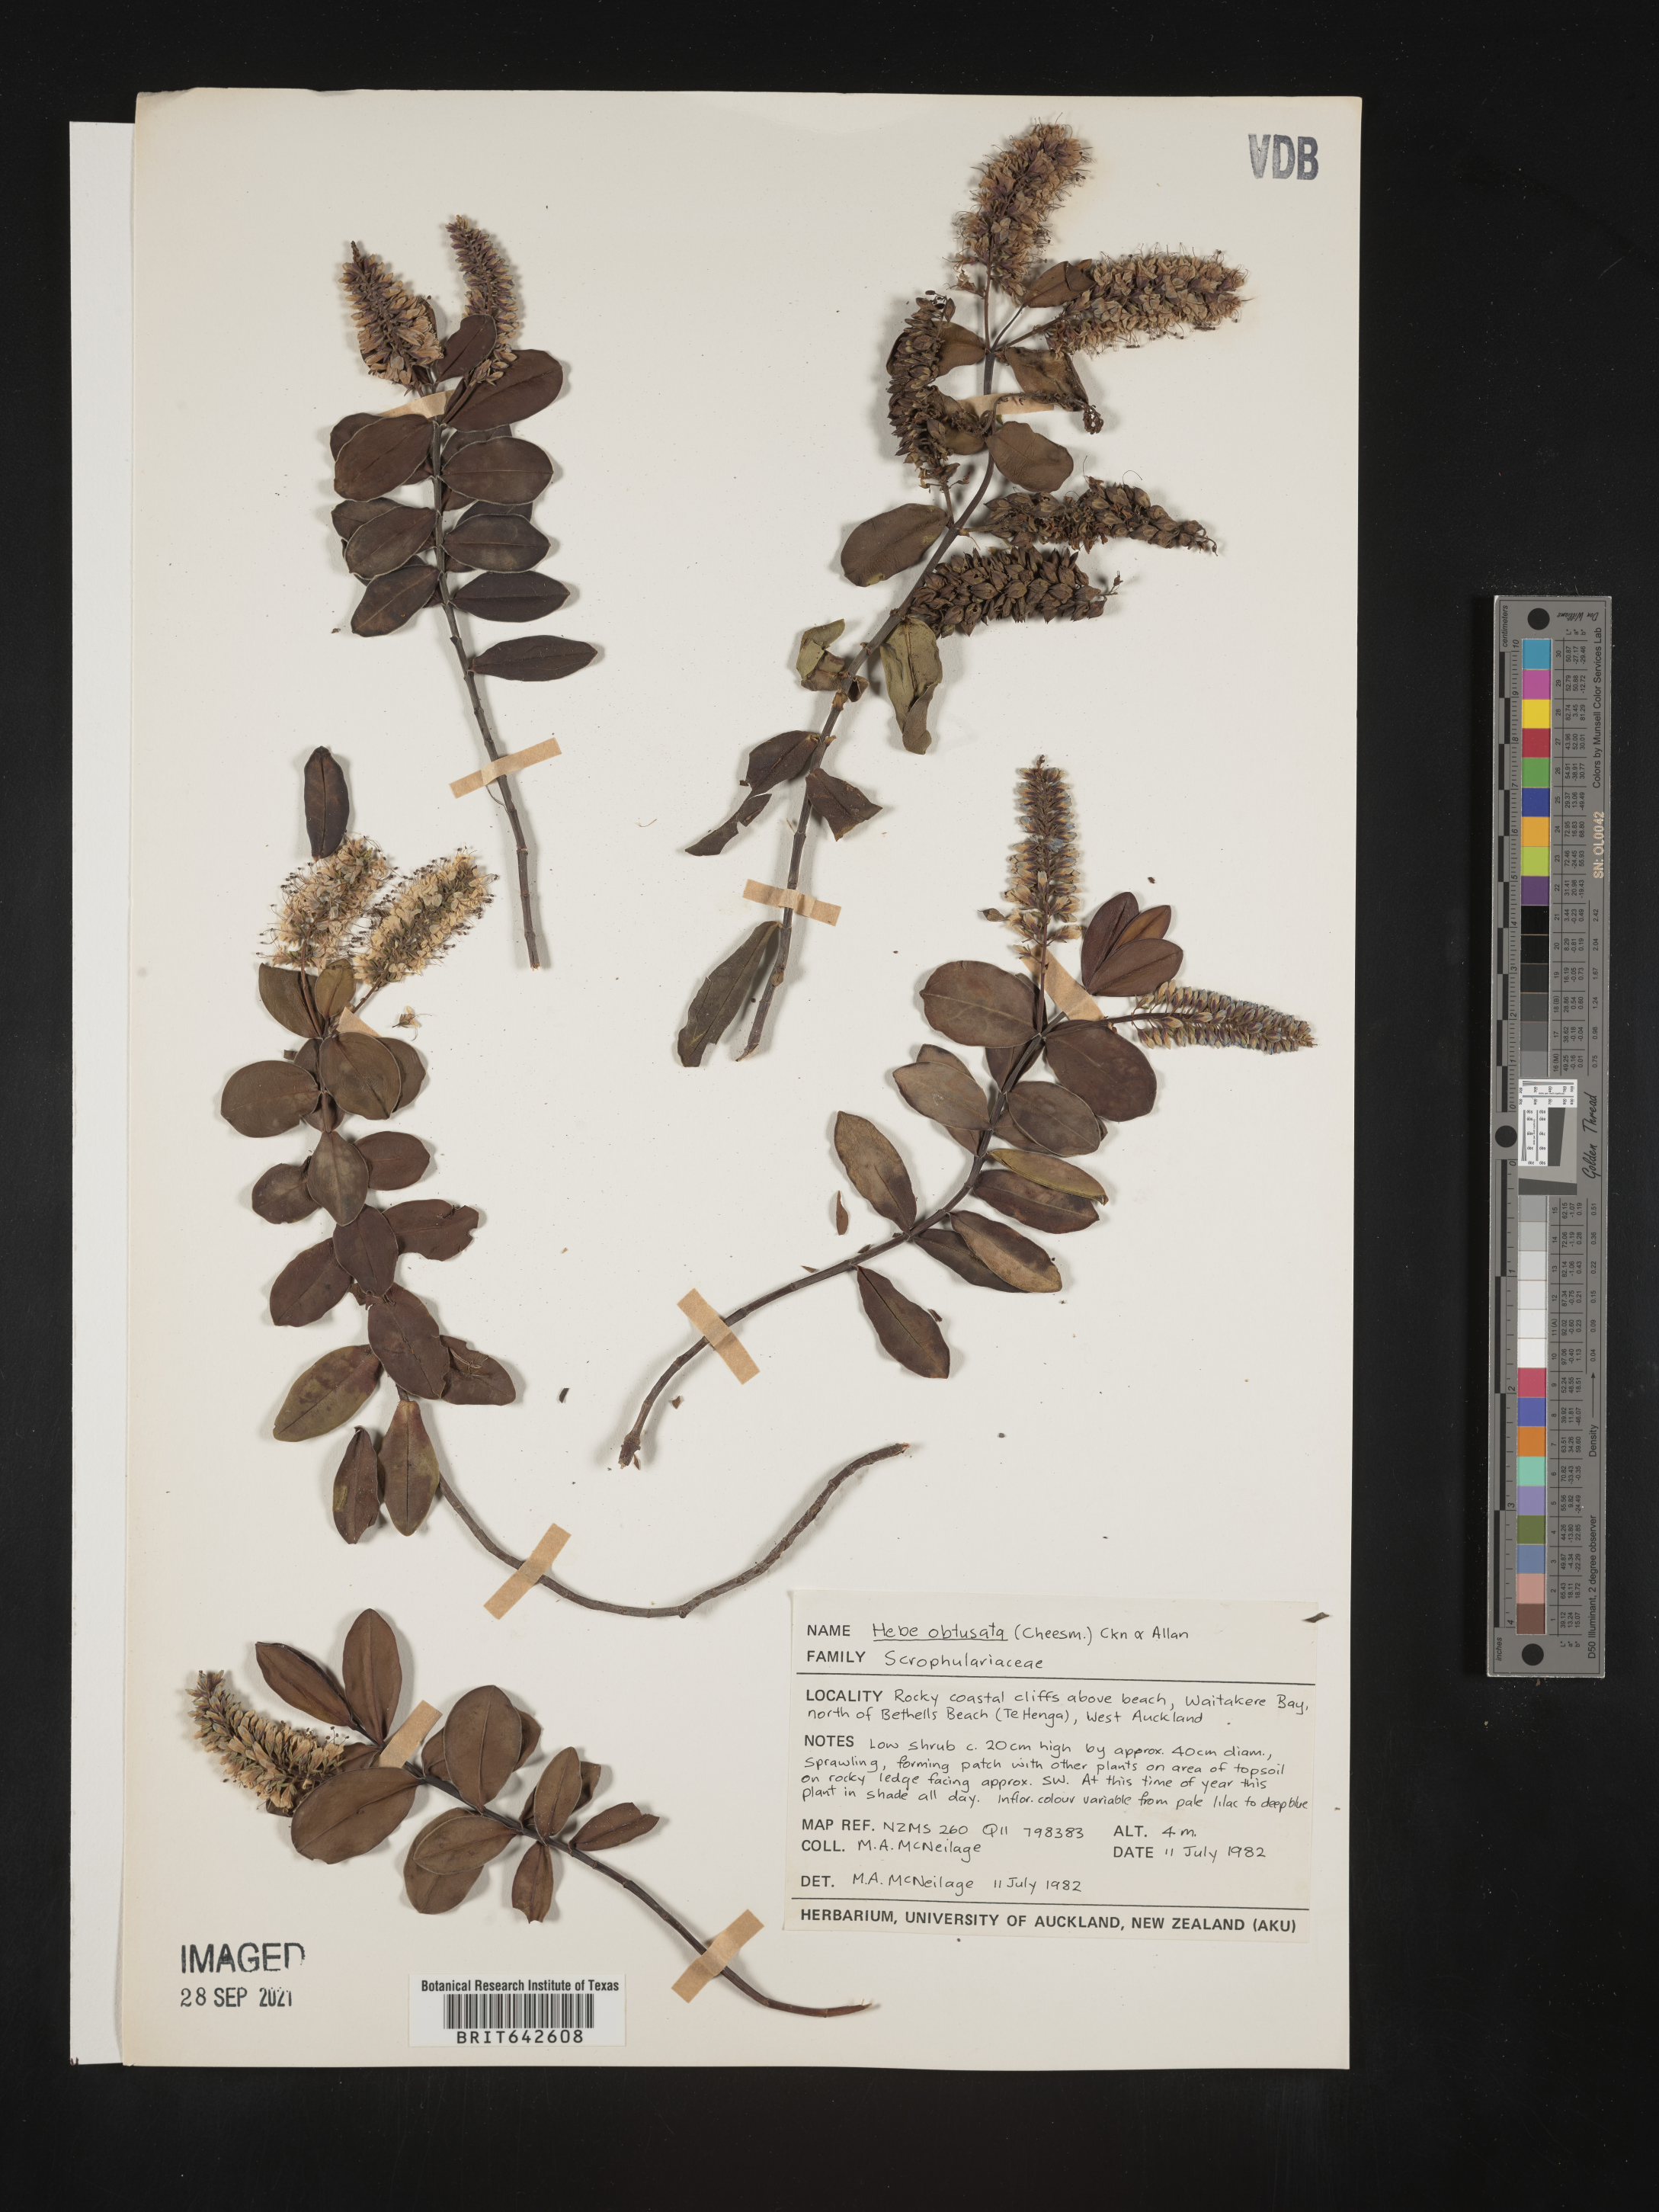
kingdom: Plantae
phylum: Tracheophyta
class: Magnoliopsida
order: Lamiales
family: Plantaginaceae
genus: Veronica
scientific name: Veronica
